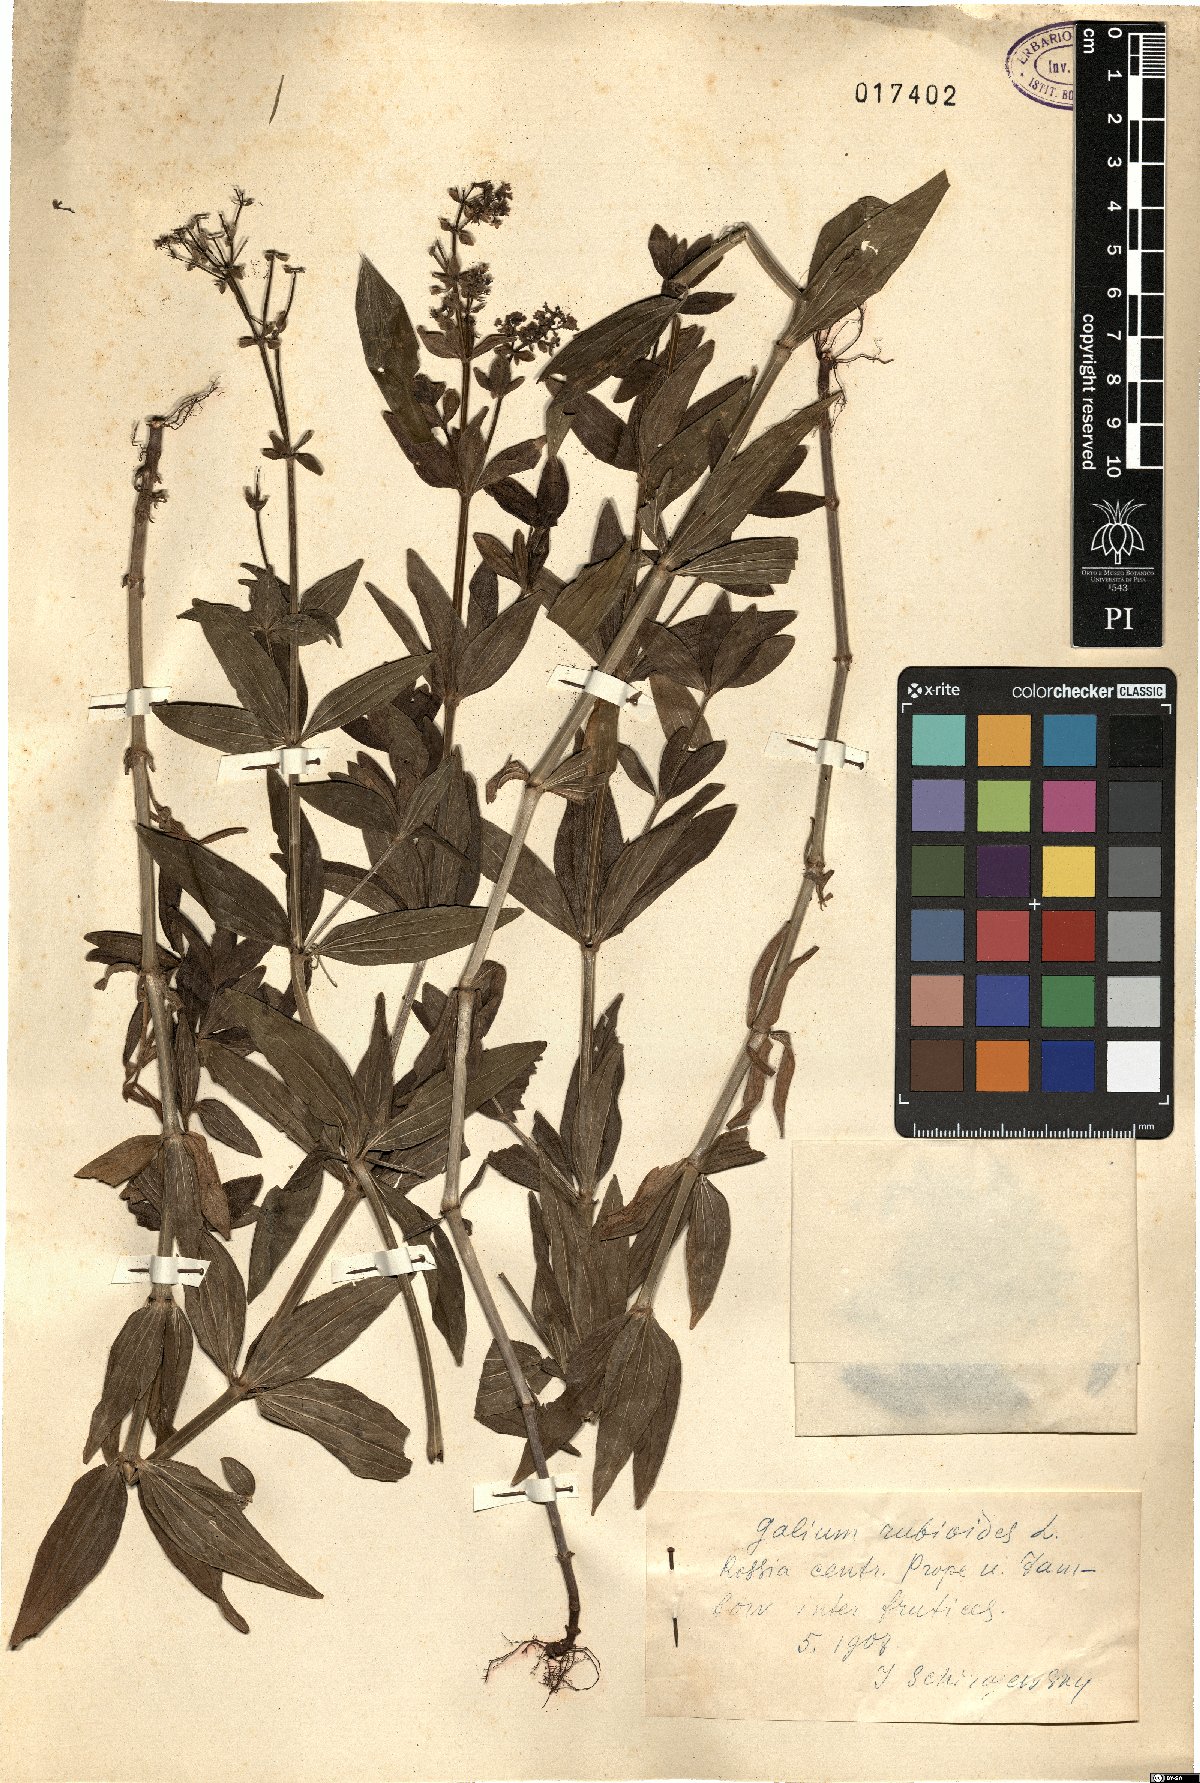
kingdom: Plantae
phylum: Tracheophyta
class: Magnoliopsida
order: Gentianales
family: Rubiaceae
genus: Galium
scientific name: Galium rubioides
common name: European bedstraw
